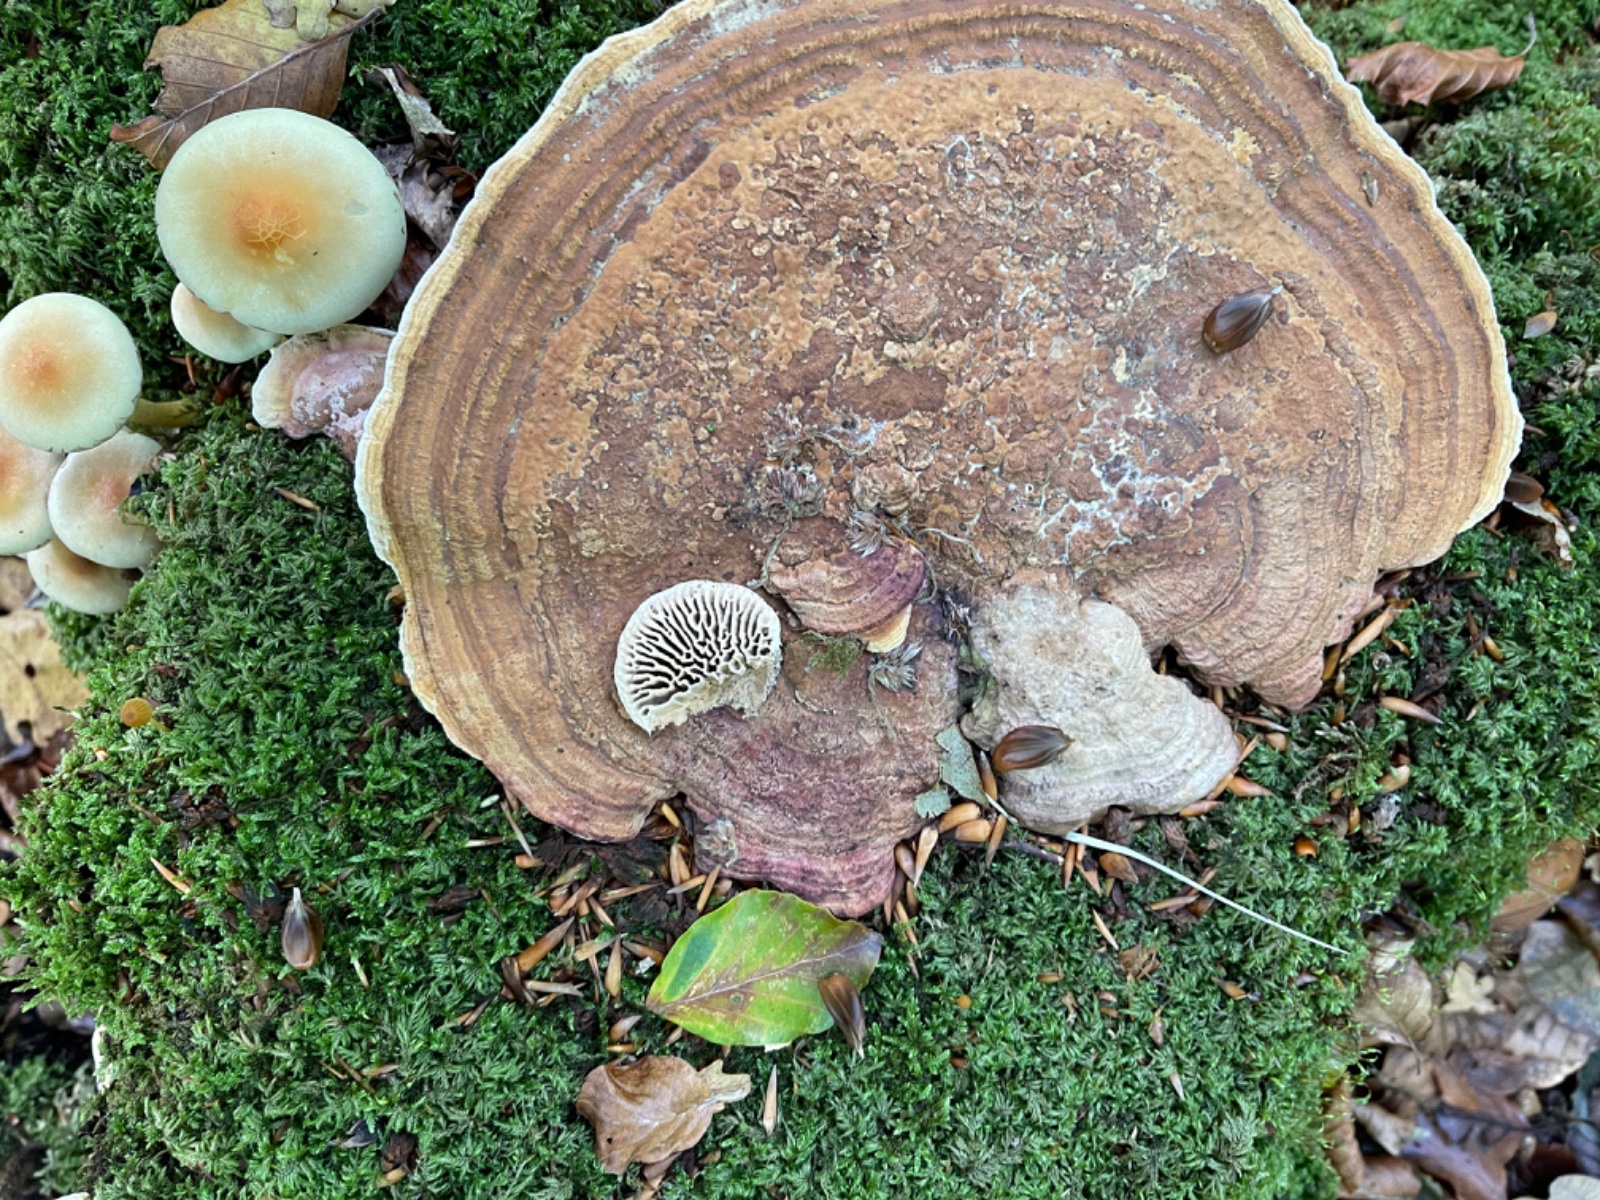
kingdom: Fungi
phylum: Basidiomycota
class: Agaricomycetes
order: Polyporales
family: Fomitopsidaceae
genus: Daedalea
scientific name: Daedalea quercina
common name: ege-labyrintsvamp
